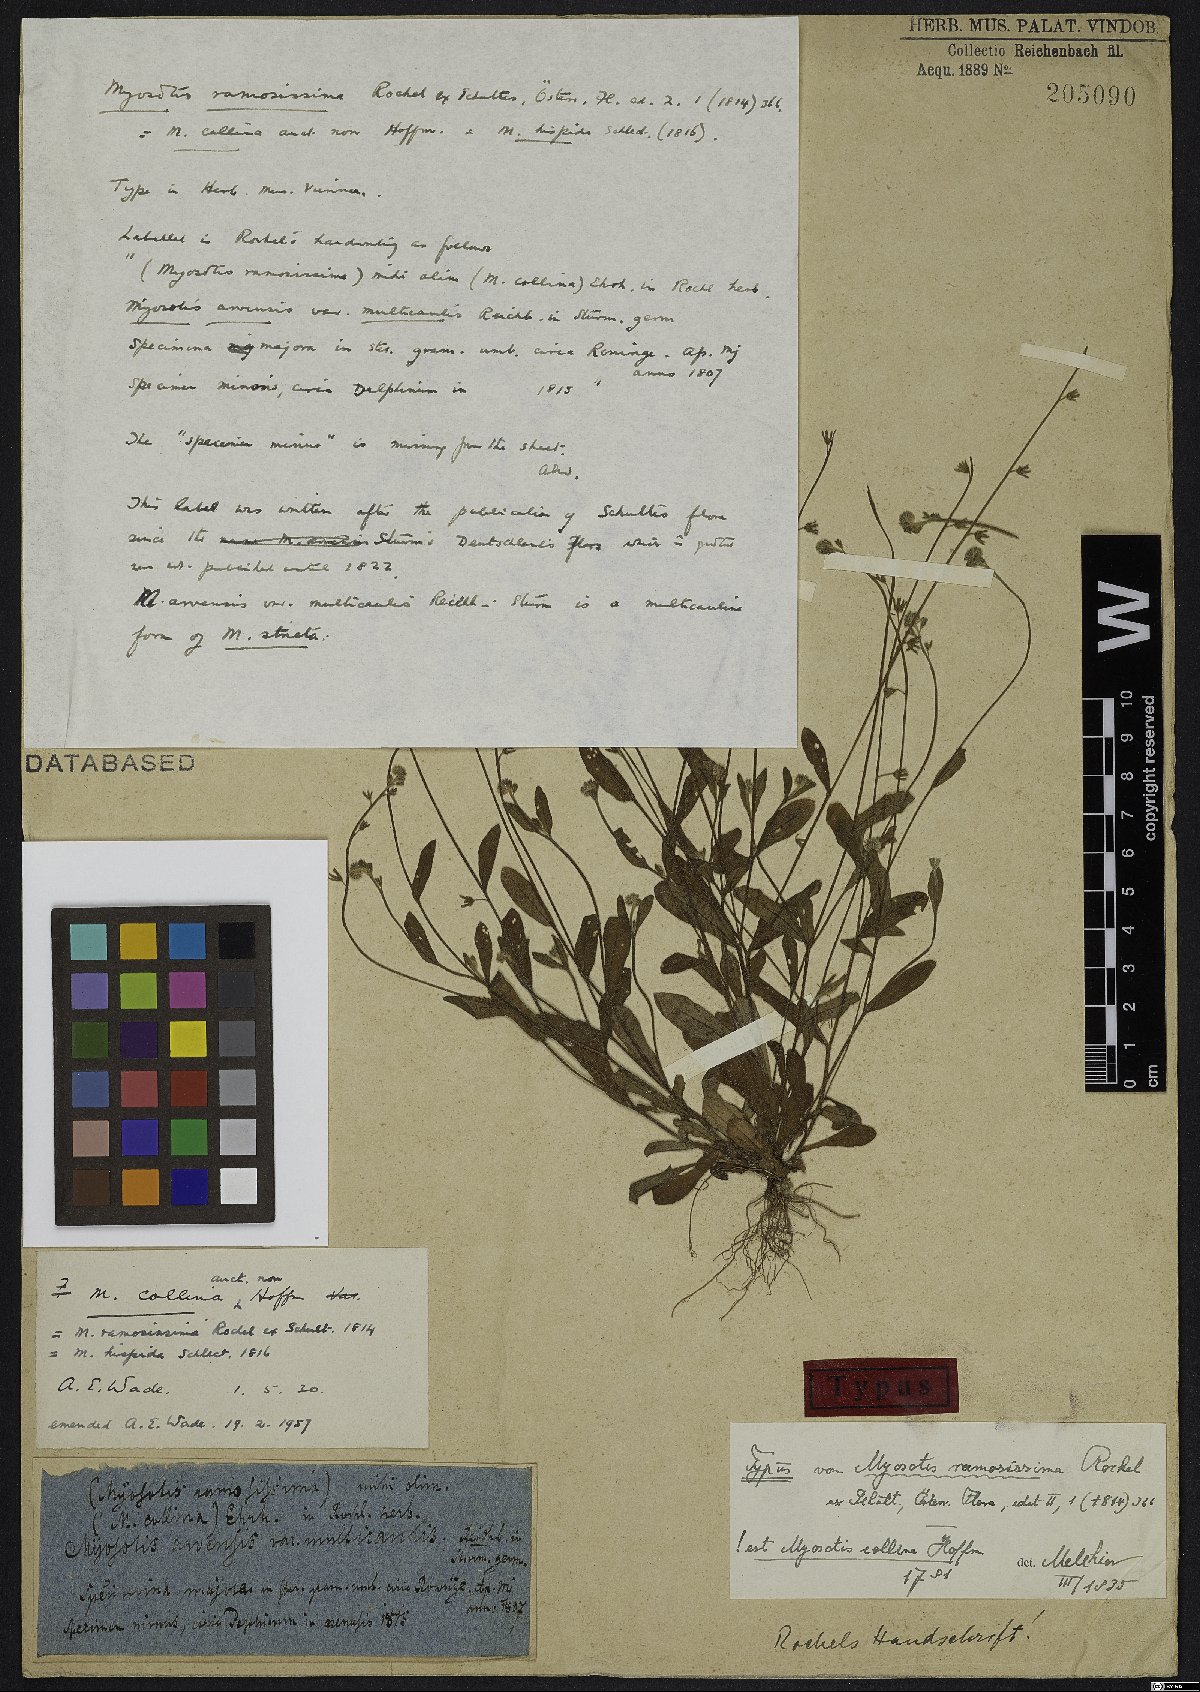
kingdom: Plantae
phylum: Tracheophyta
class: Magnoliopsida
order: Boraginales
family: Boraginaceae
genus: Myosotis
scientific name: Myosotis ramosissima
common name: Early forget-me-not
